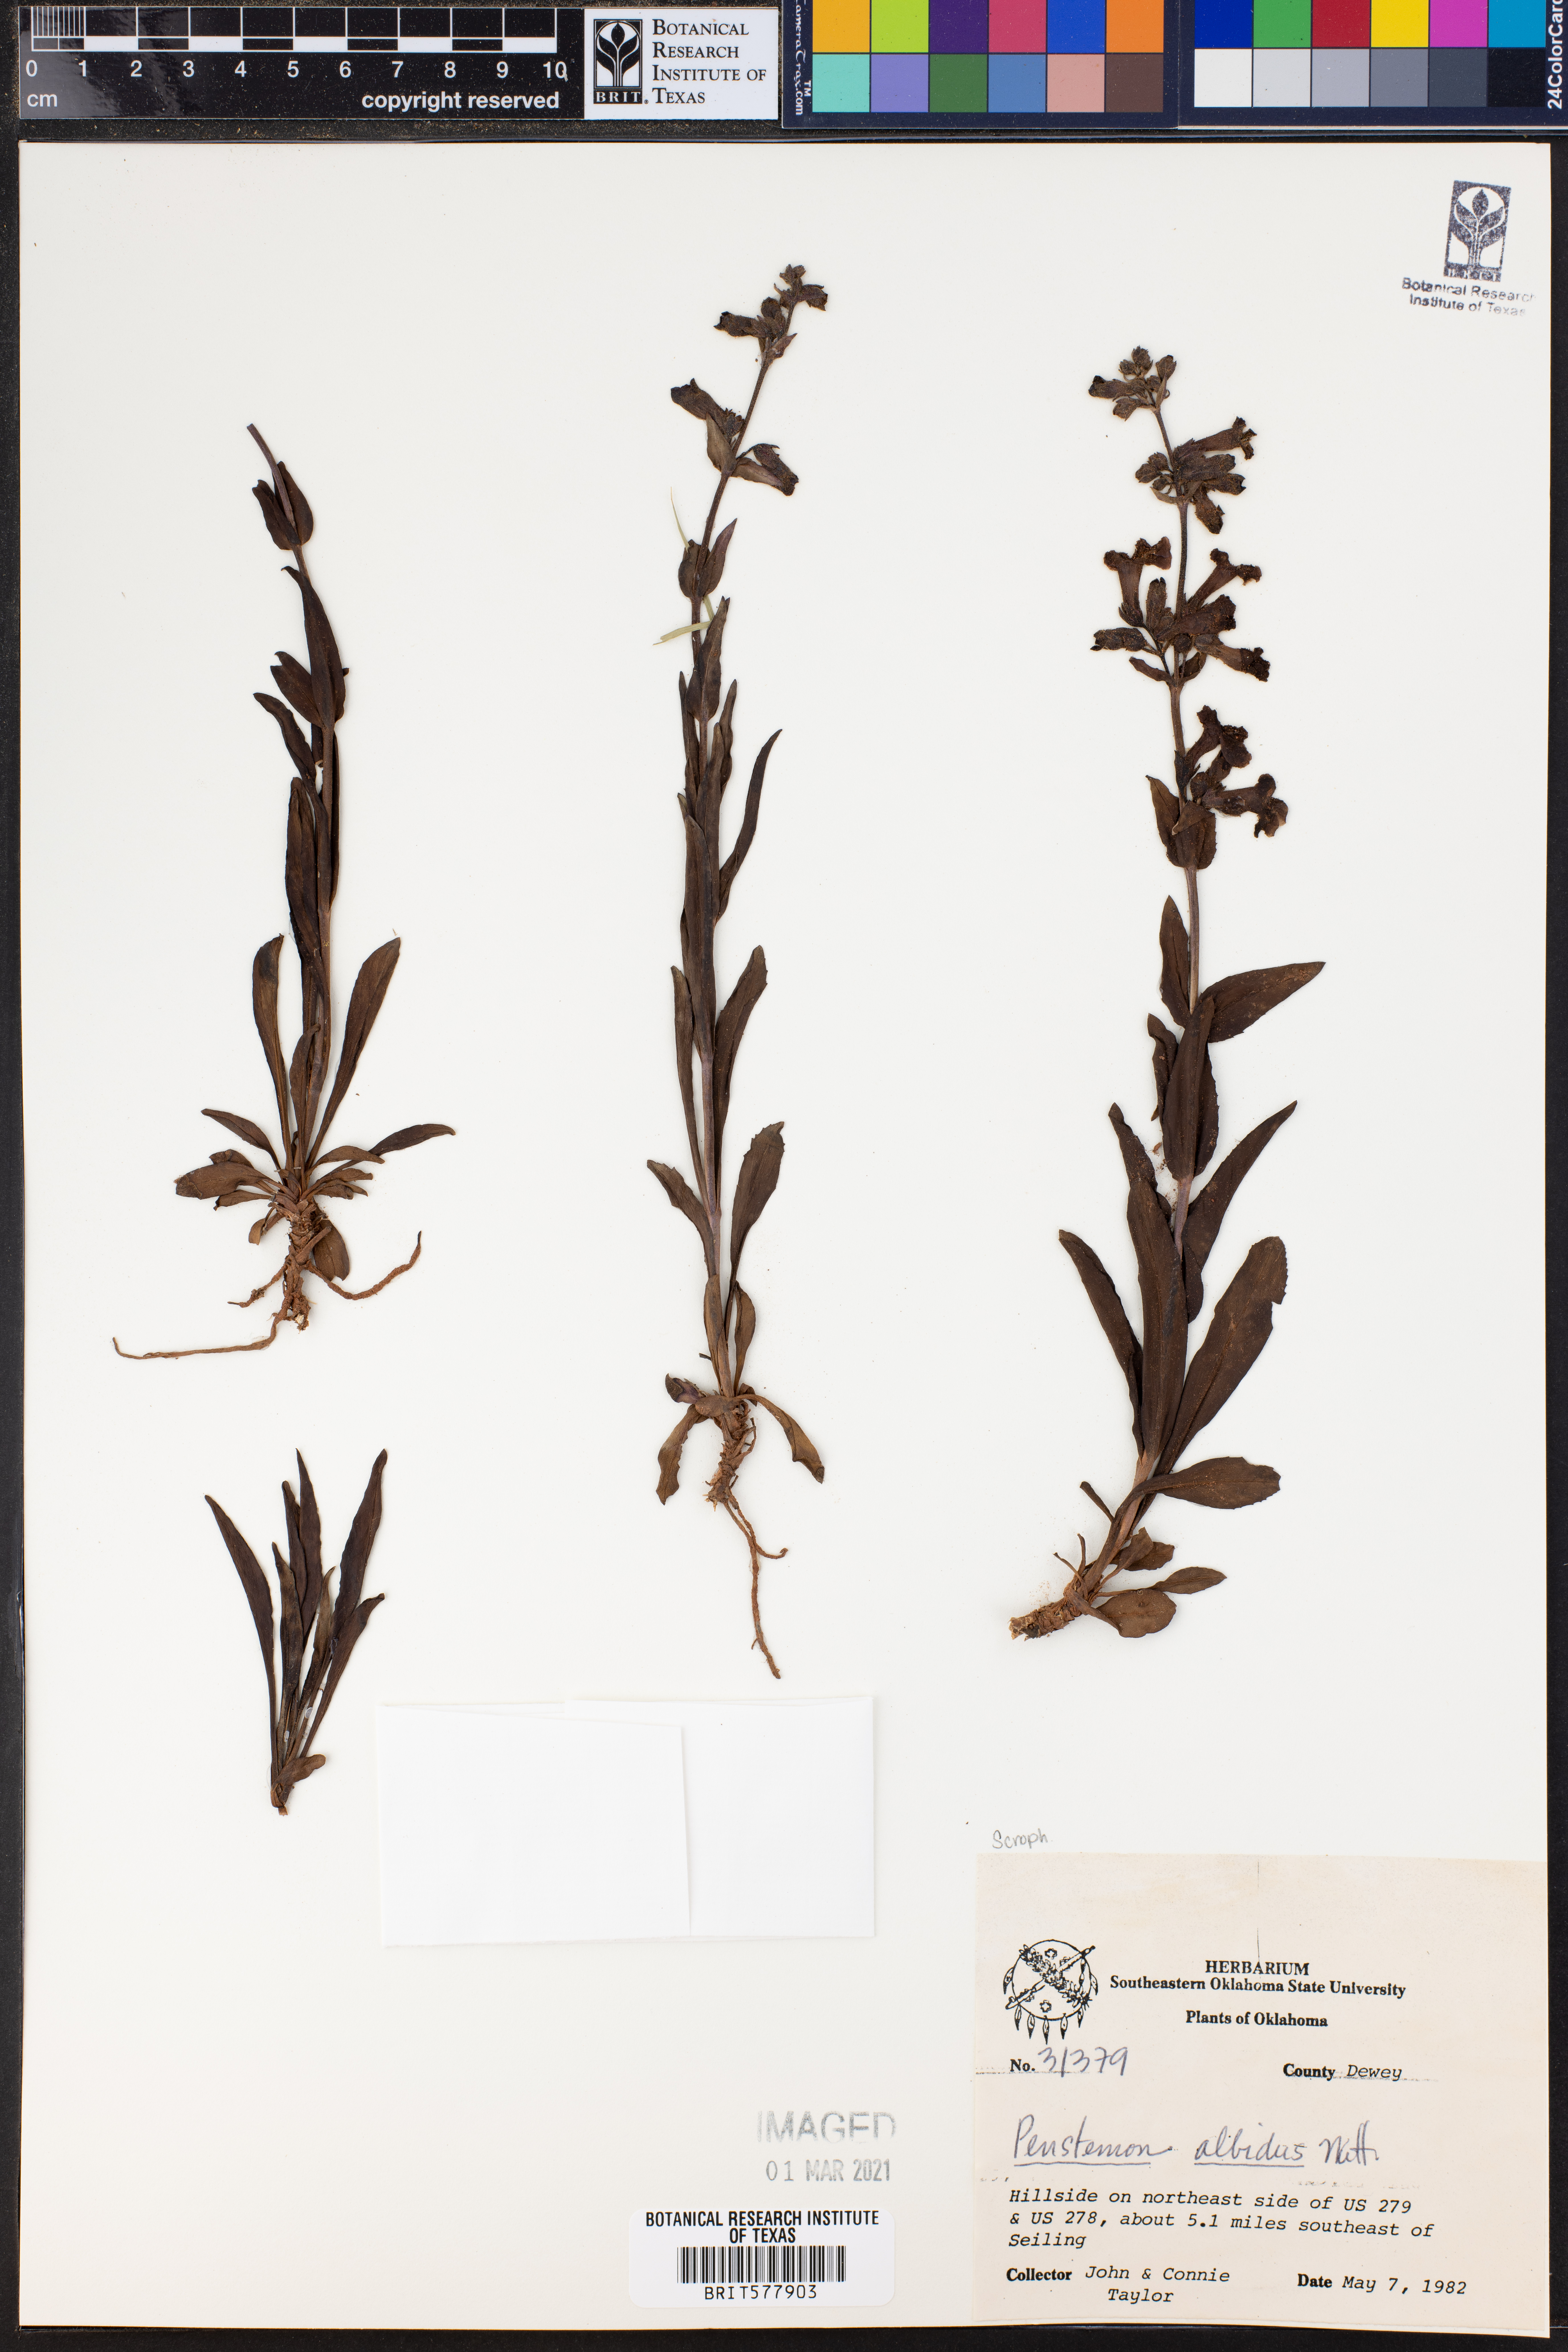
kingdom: Plantae
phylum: Tracheophyta
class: Magnoliopsida
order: Lamiales
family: Plantaginaceae
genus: Penstemon
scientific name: Penstemon albidus
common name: White beardtongue
